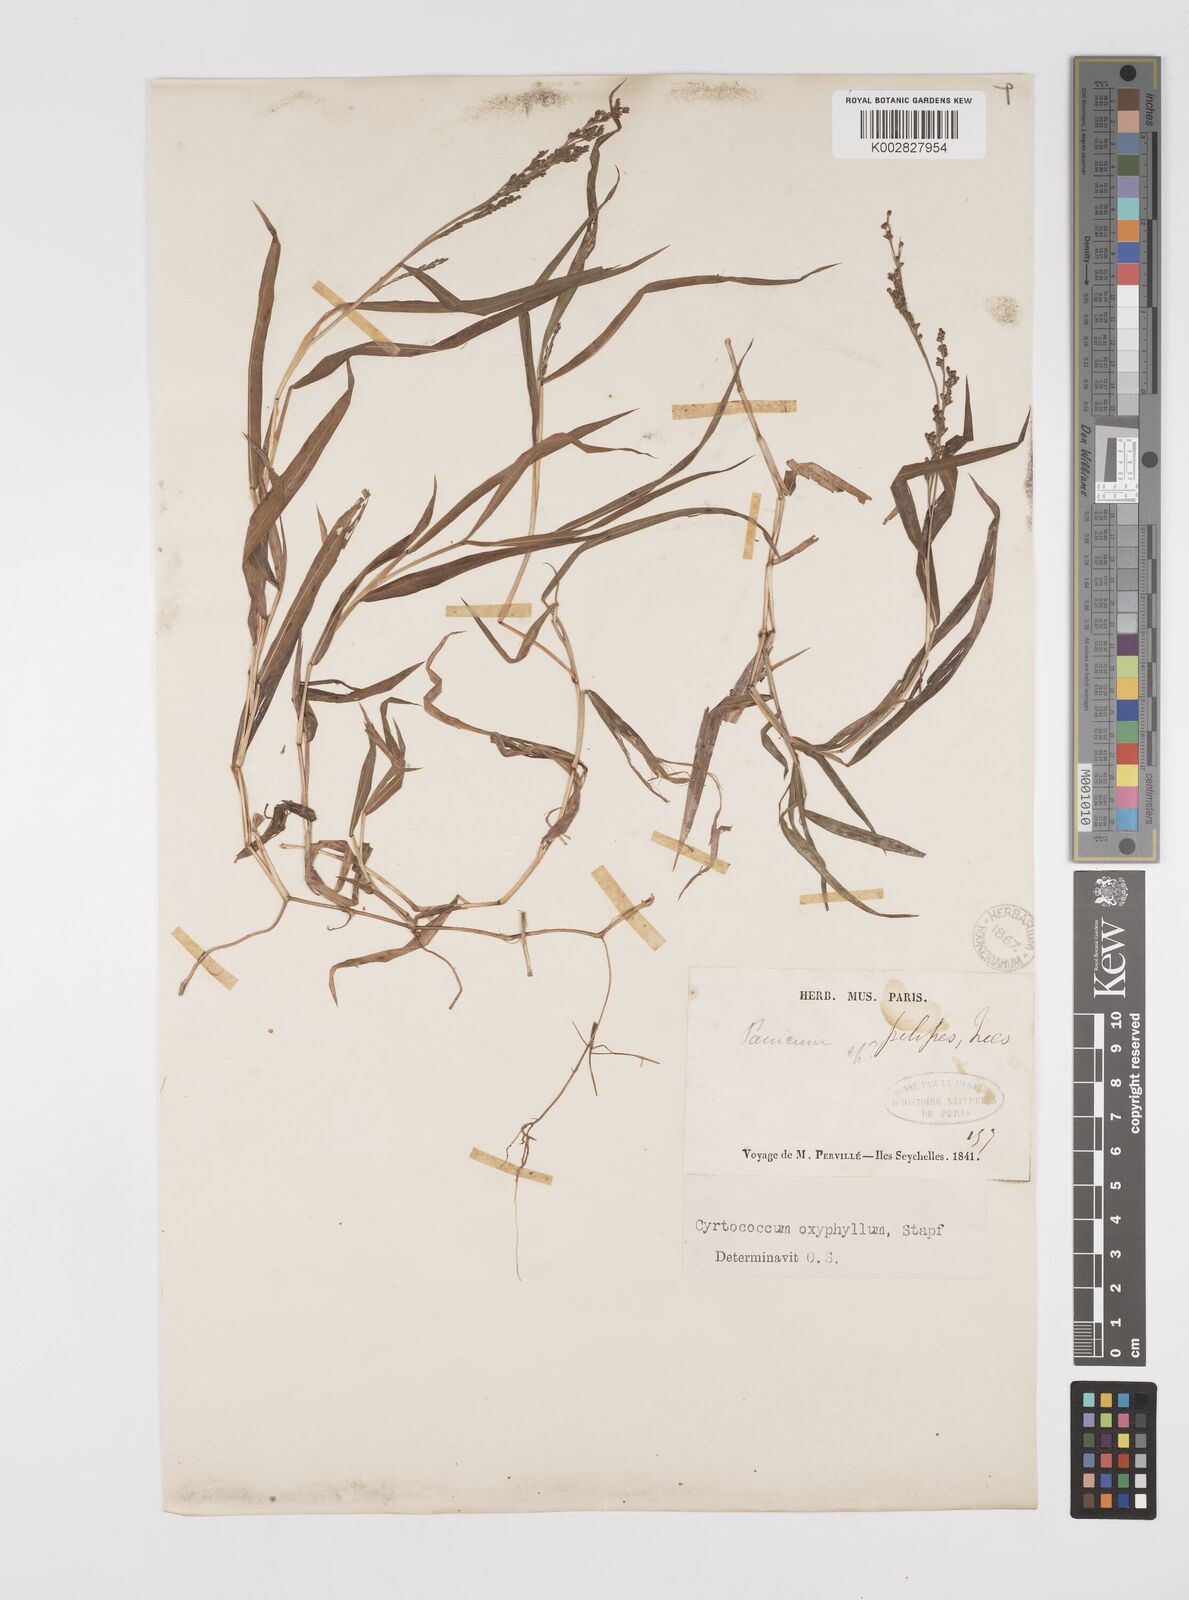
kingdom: Plantae
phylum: Tracheophyta
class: Liliopsida
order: Poales
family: Poaceae
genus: Cyrtococcum
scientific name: Cyrtococcum oxyphyllum
